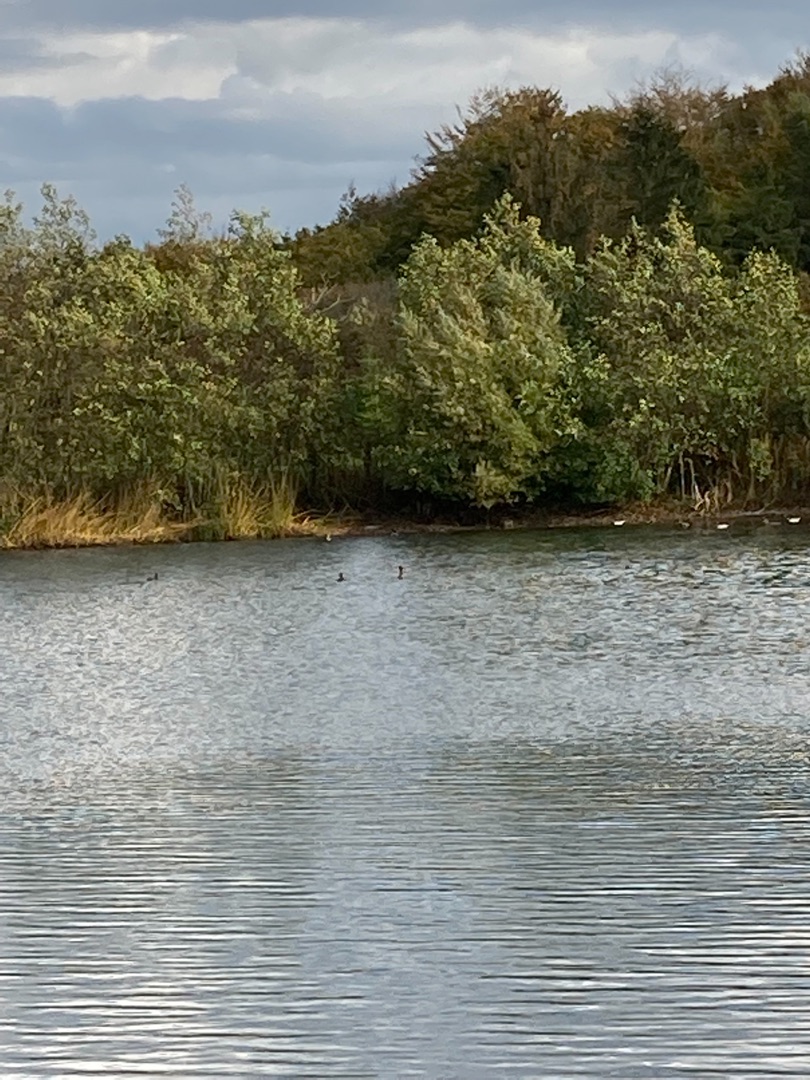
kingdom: Animalia
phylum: Chordata
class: Aves
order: Anseriformes
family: Anatidae
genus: Anas
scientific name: Anas platyrhynchos
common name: Gråand
